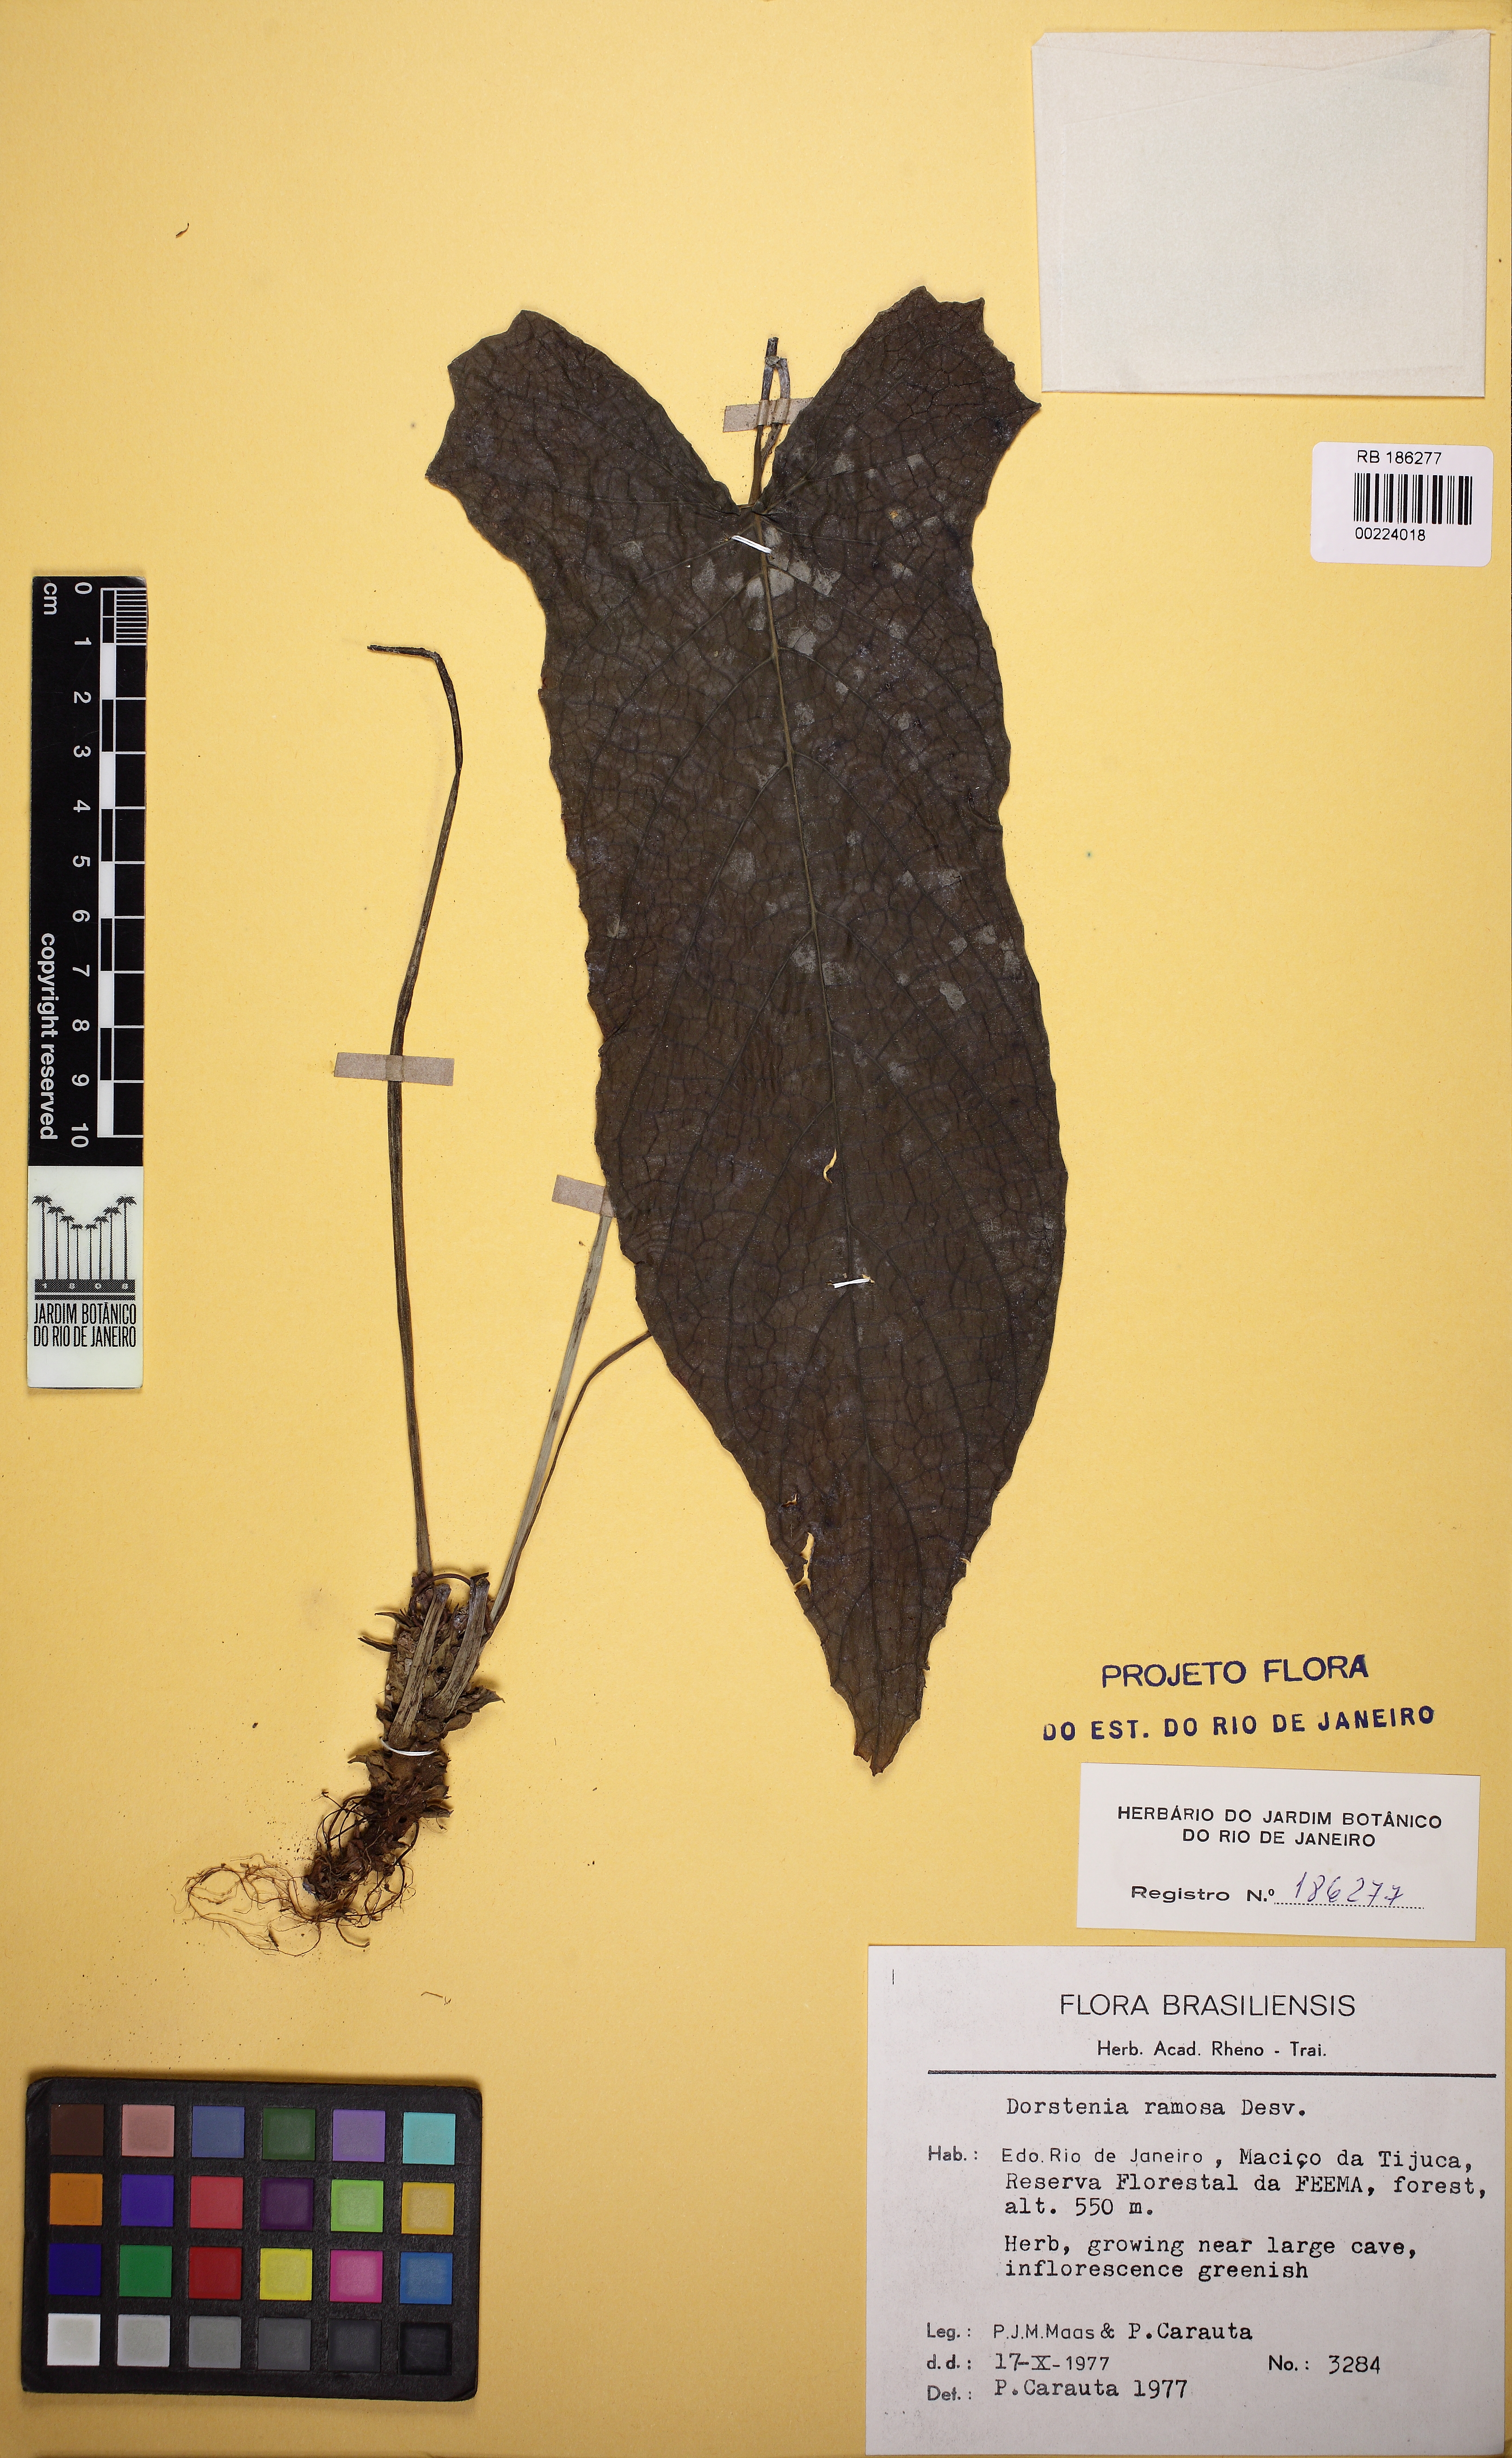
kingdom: Plantae
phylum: Tracheophyta
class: Magnoliopsida
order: Rosales
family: Moraceae
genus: Dorstenia
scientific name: Dorstenia ramosa
